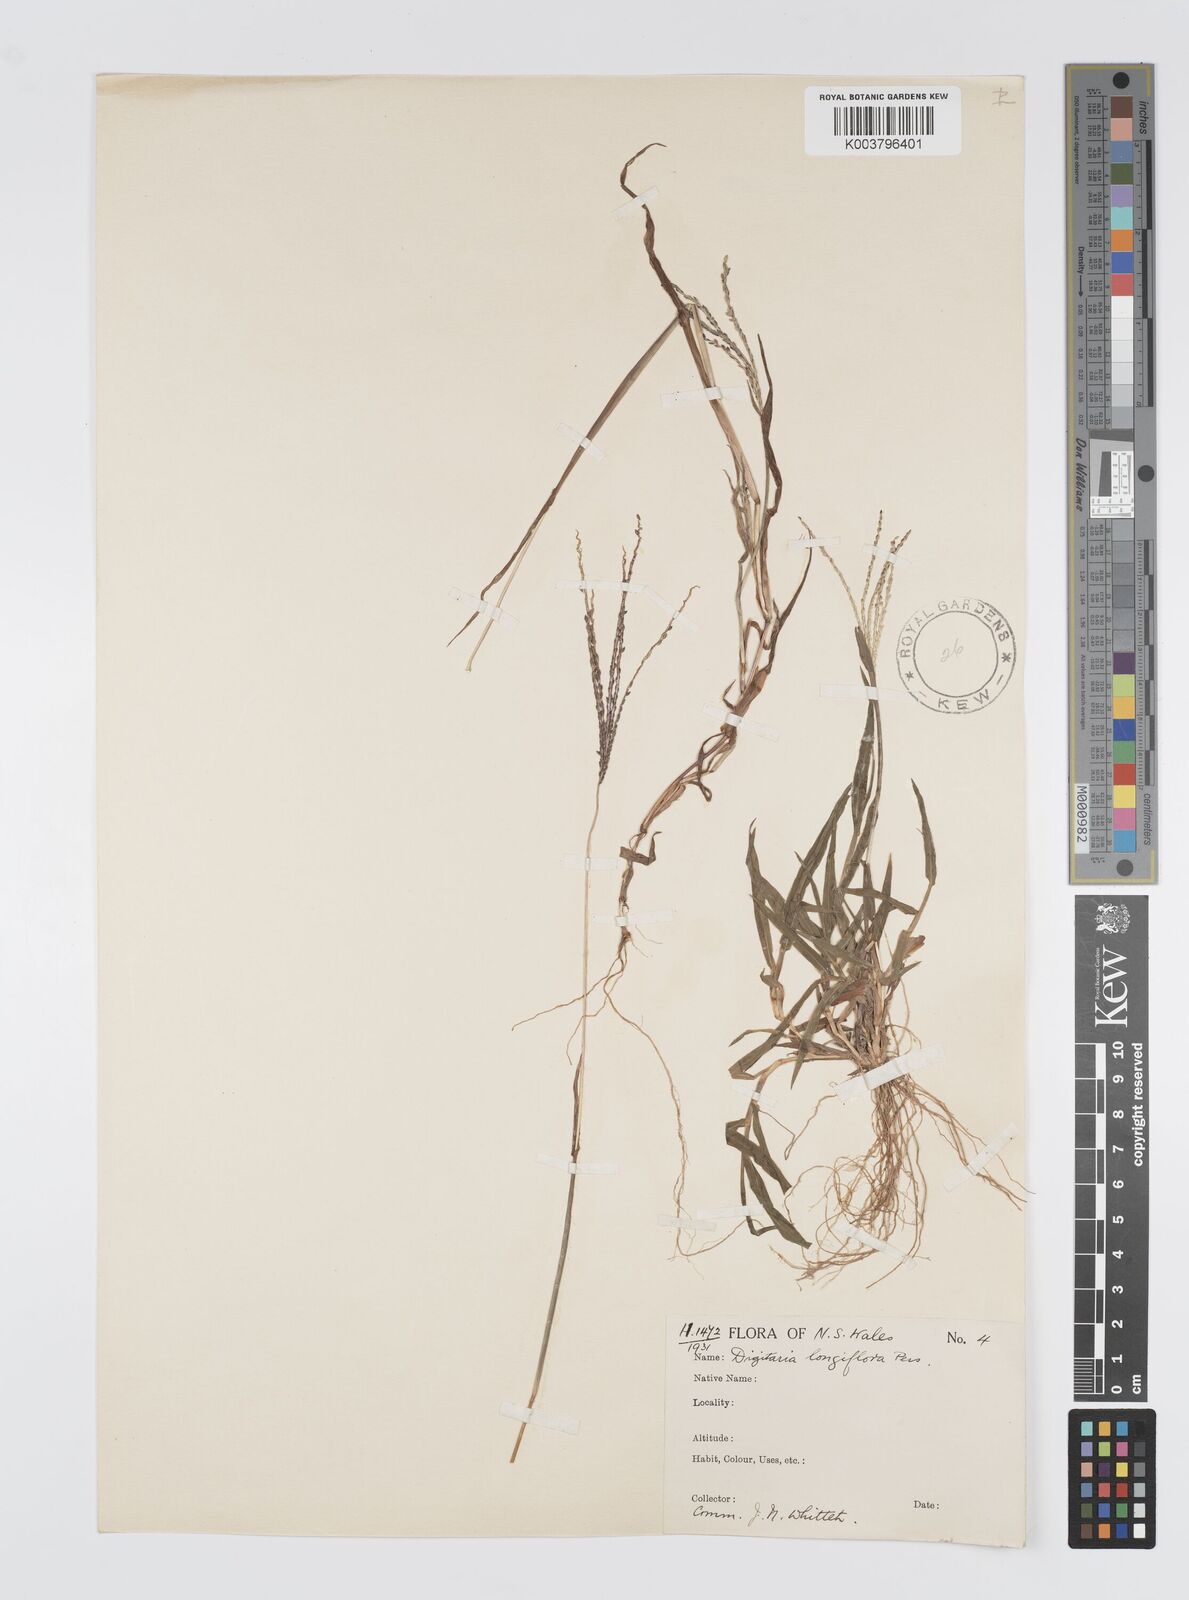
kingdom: Plantae
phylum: Tracheophyta
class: Liliopsida
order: Poales
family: Poaceae
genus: Digitaria
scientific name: Digitaria violascens
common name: Violet crabgrass
